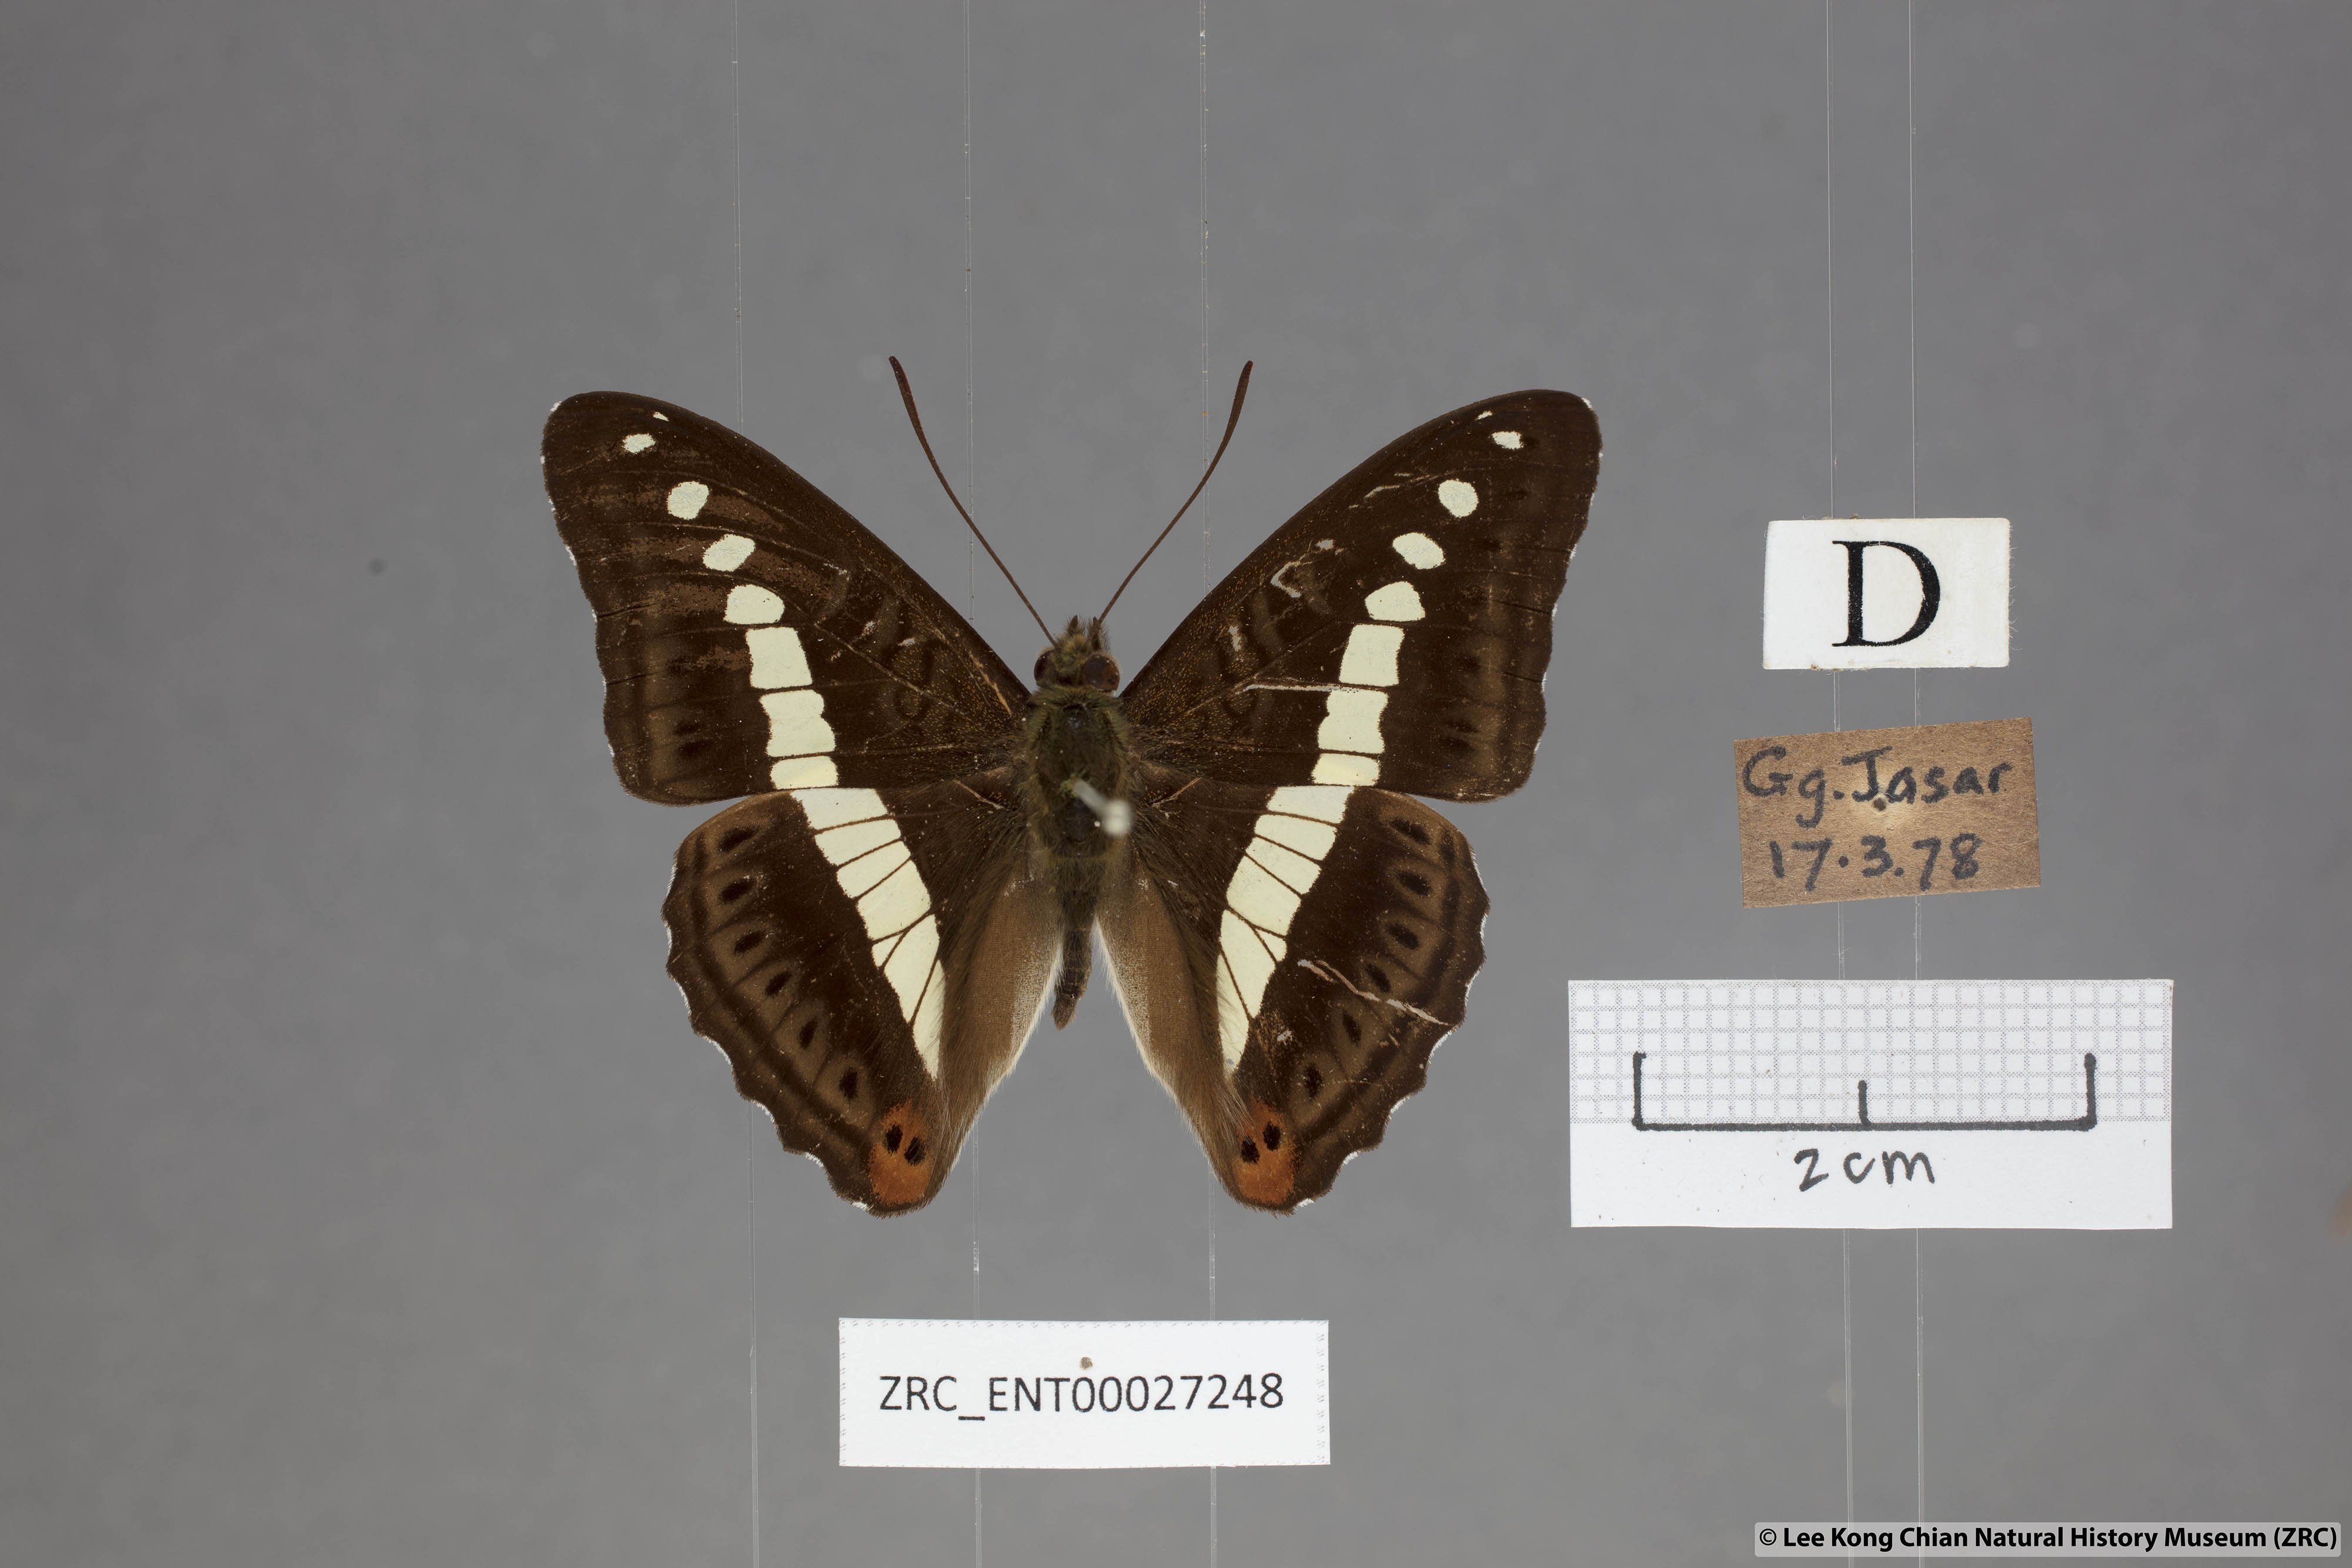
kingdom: Animalia
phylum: Arthropoda
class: Insecta
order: Lepidoptera
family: Nymphalidae
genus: Limenitis
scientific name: Limenitis Sumalia daraxa
